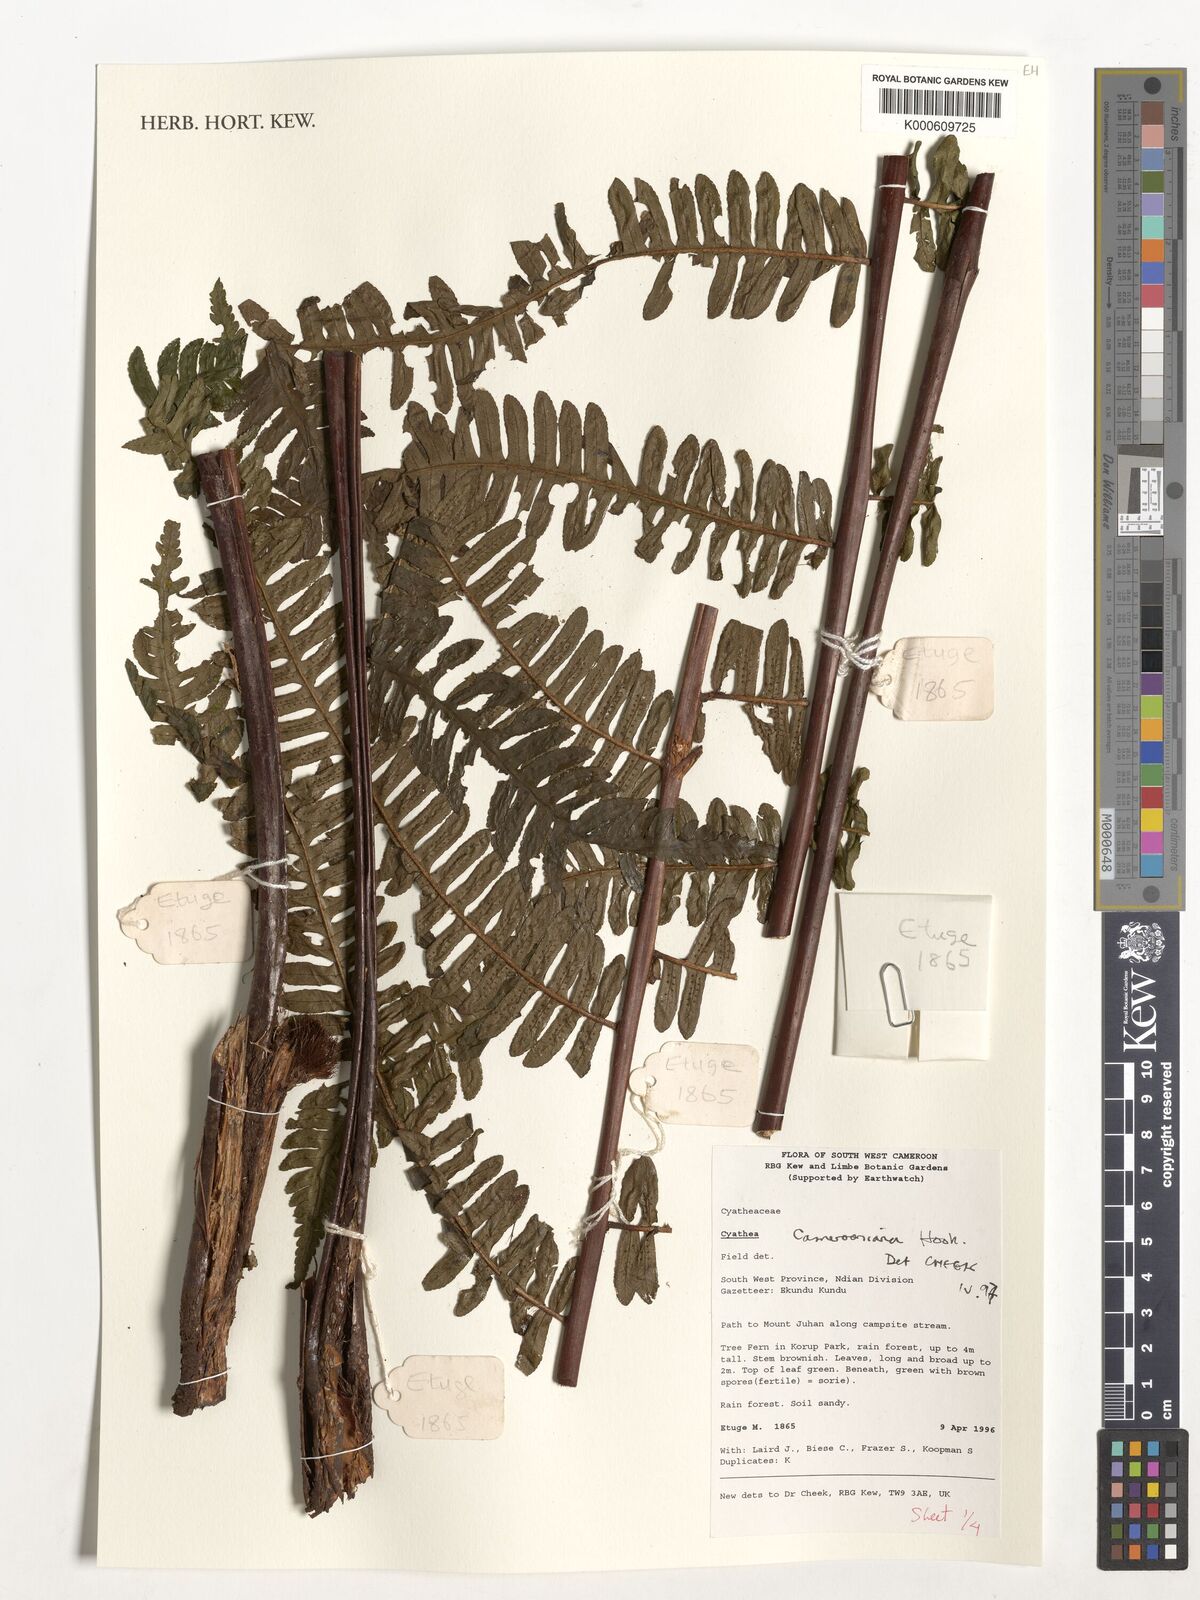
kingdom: Plantae
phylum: Tracheophyta
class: Polypodiopsida
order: Cyatheales
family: Cyatheaceae
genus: Alsophila
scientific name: Alsophila camerooniana
